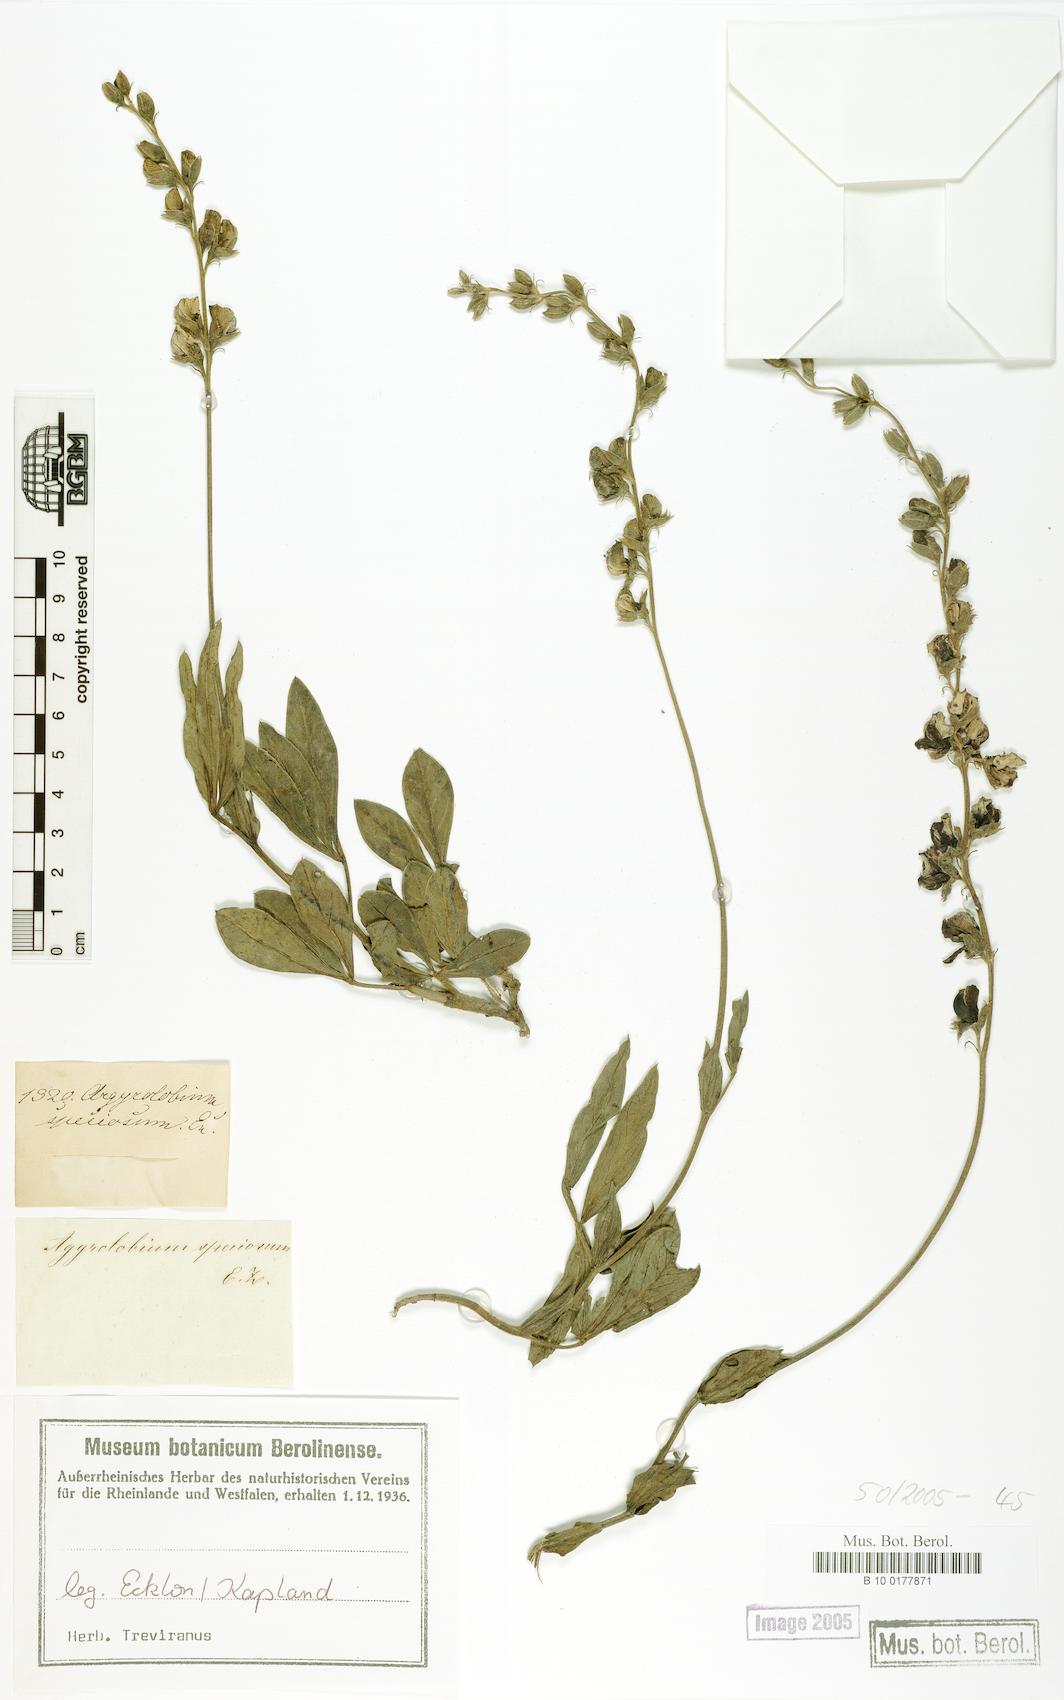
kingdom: Plantae
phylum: Tracheophyta
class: Magnoliopsida
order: Fabales
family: Fabaceae
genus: Argyrolobium
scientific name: Argyrolobium speciosum
